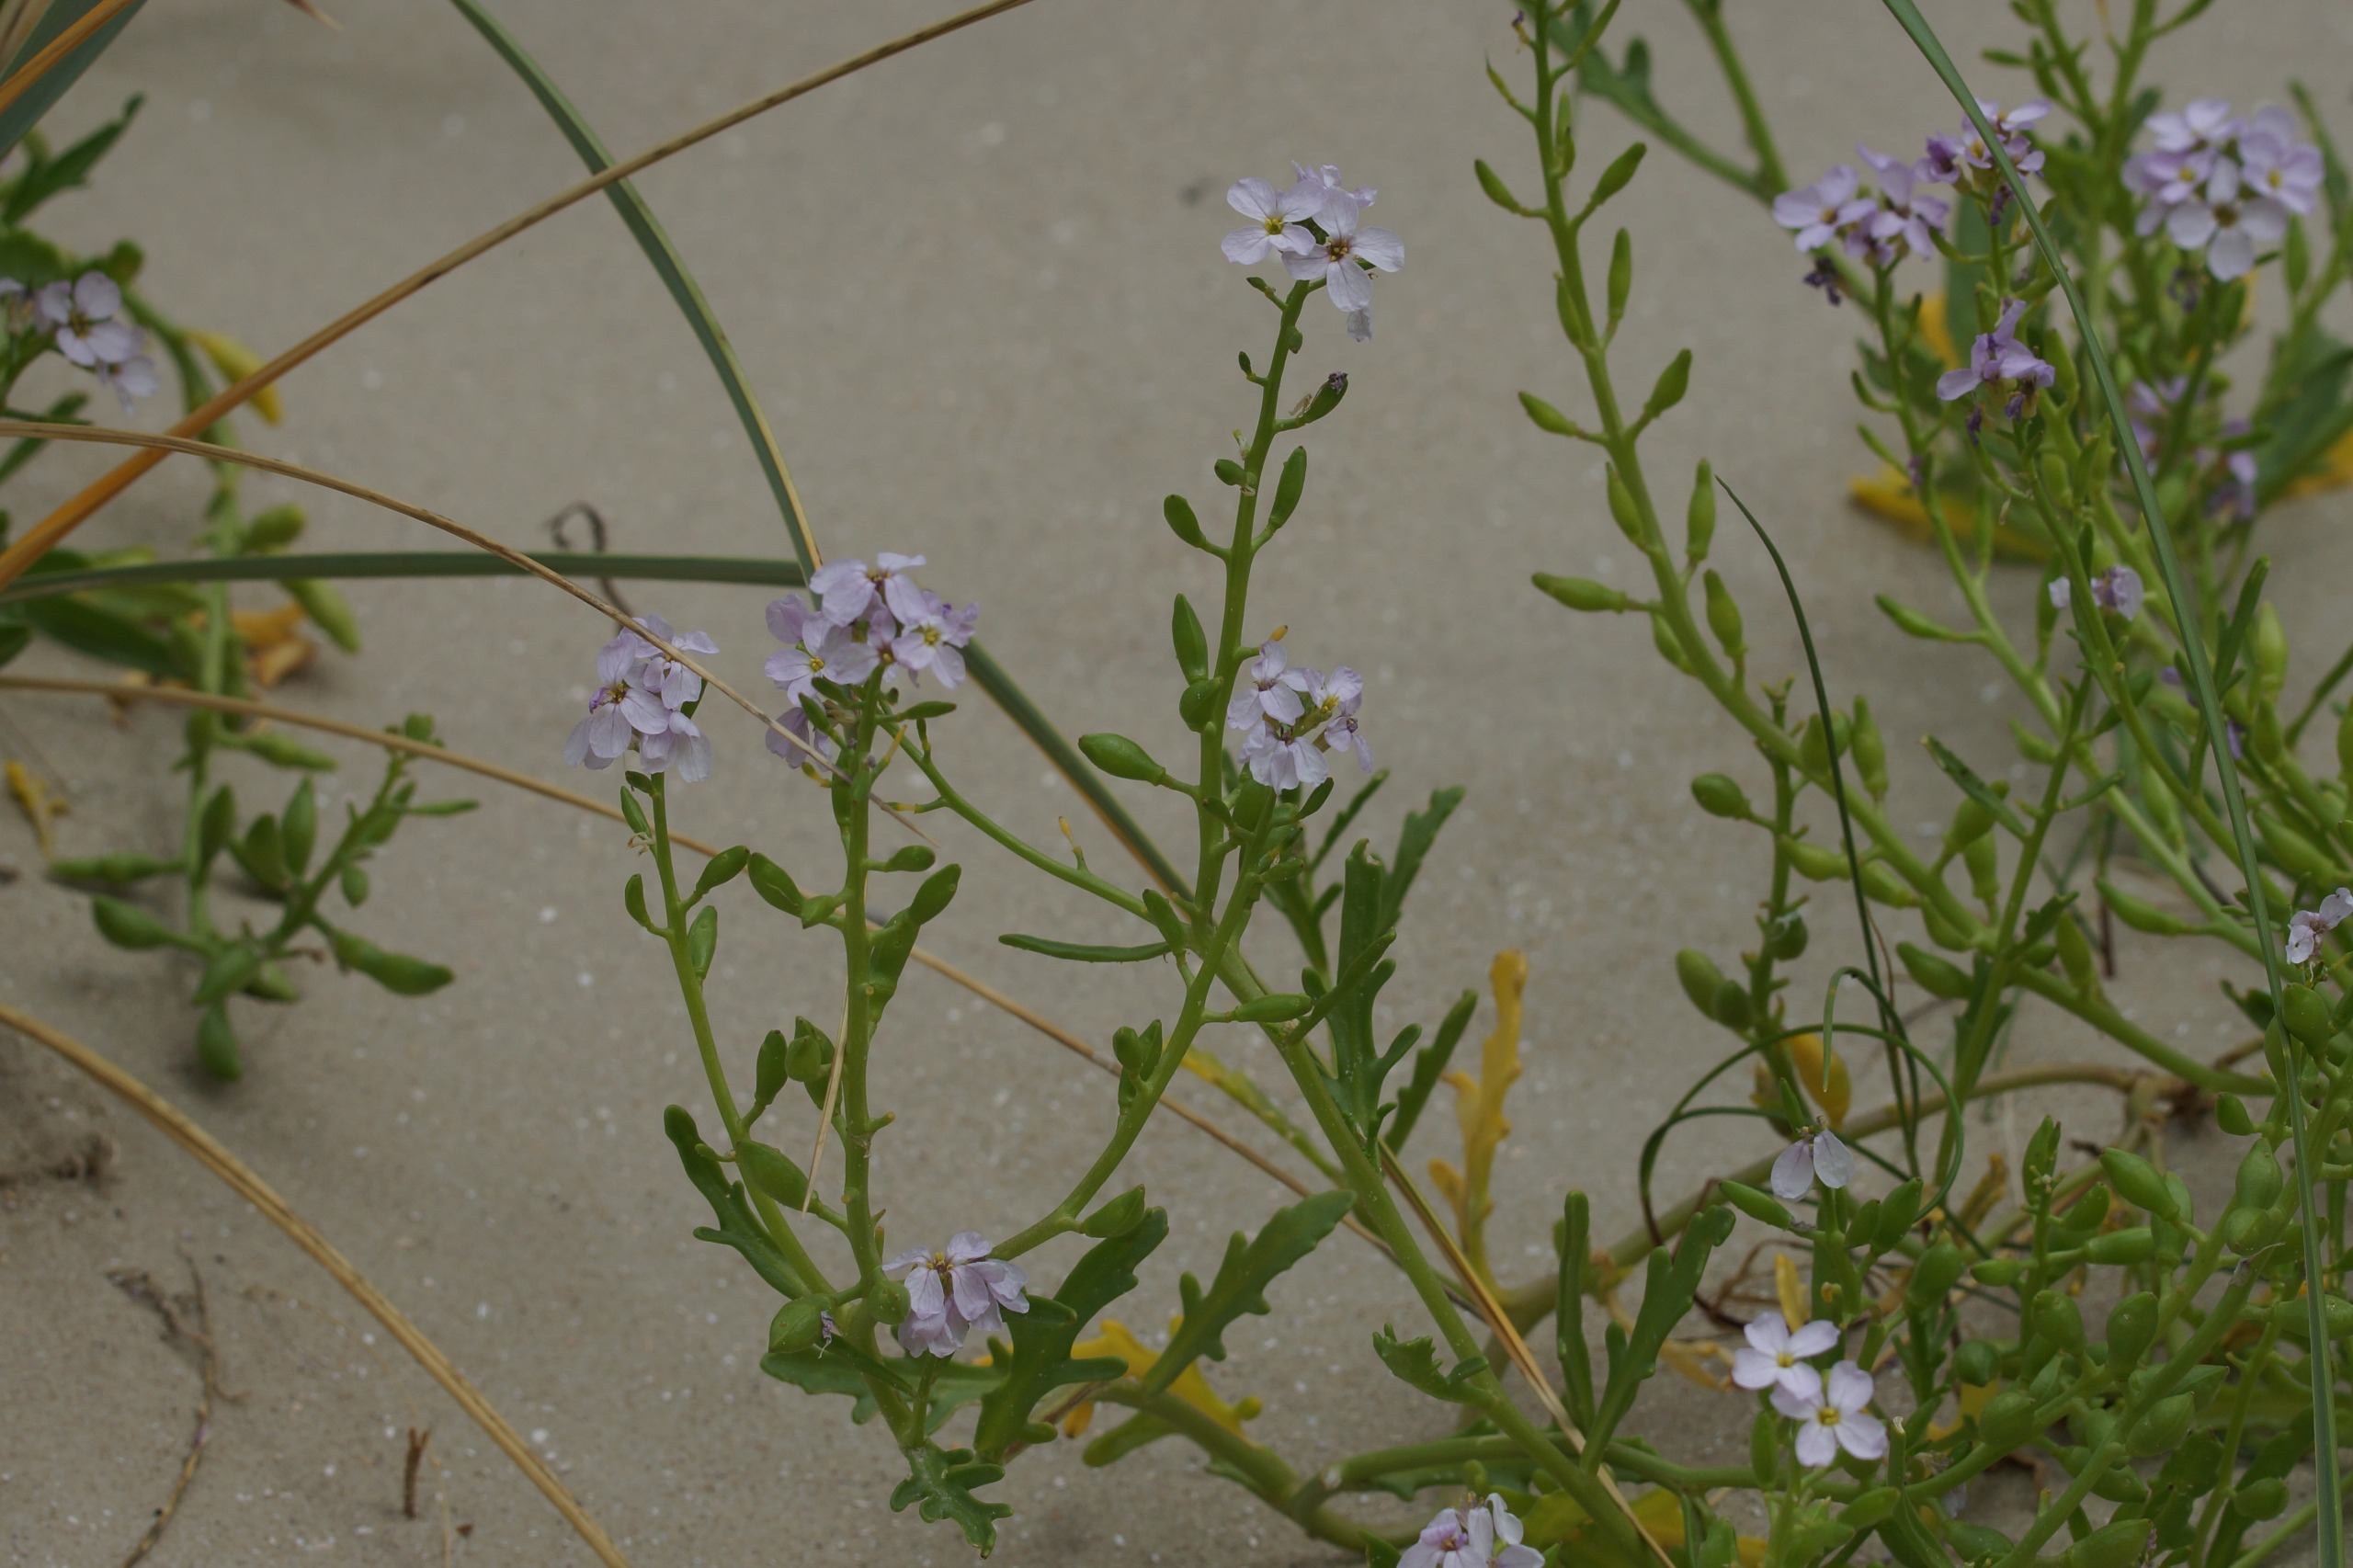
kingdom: Plantae
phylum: Tracheophyta
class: Magnoliopsida
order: Brassicales
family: Brassicaceae
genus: Cakile
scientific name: Cakile maritima
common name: Strandsennep
